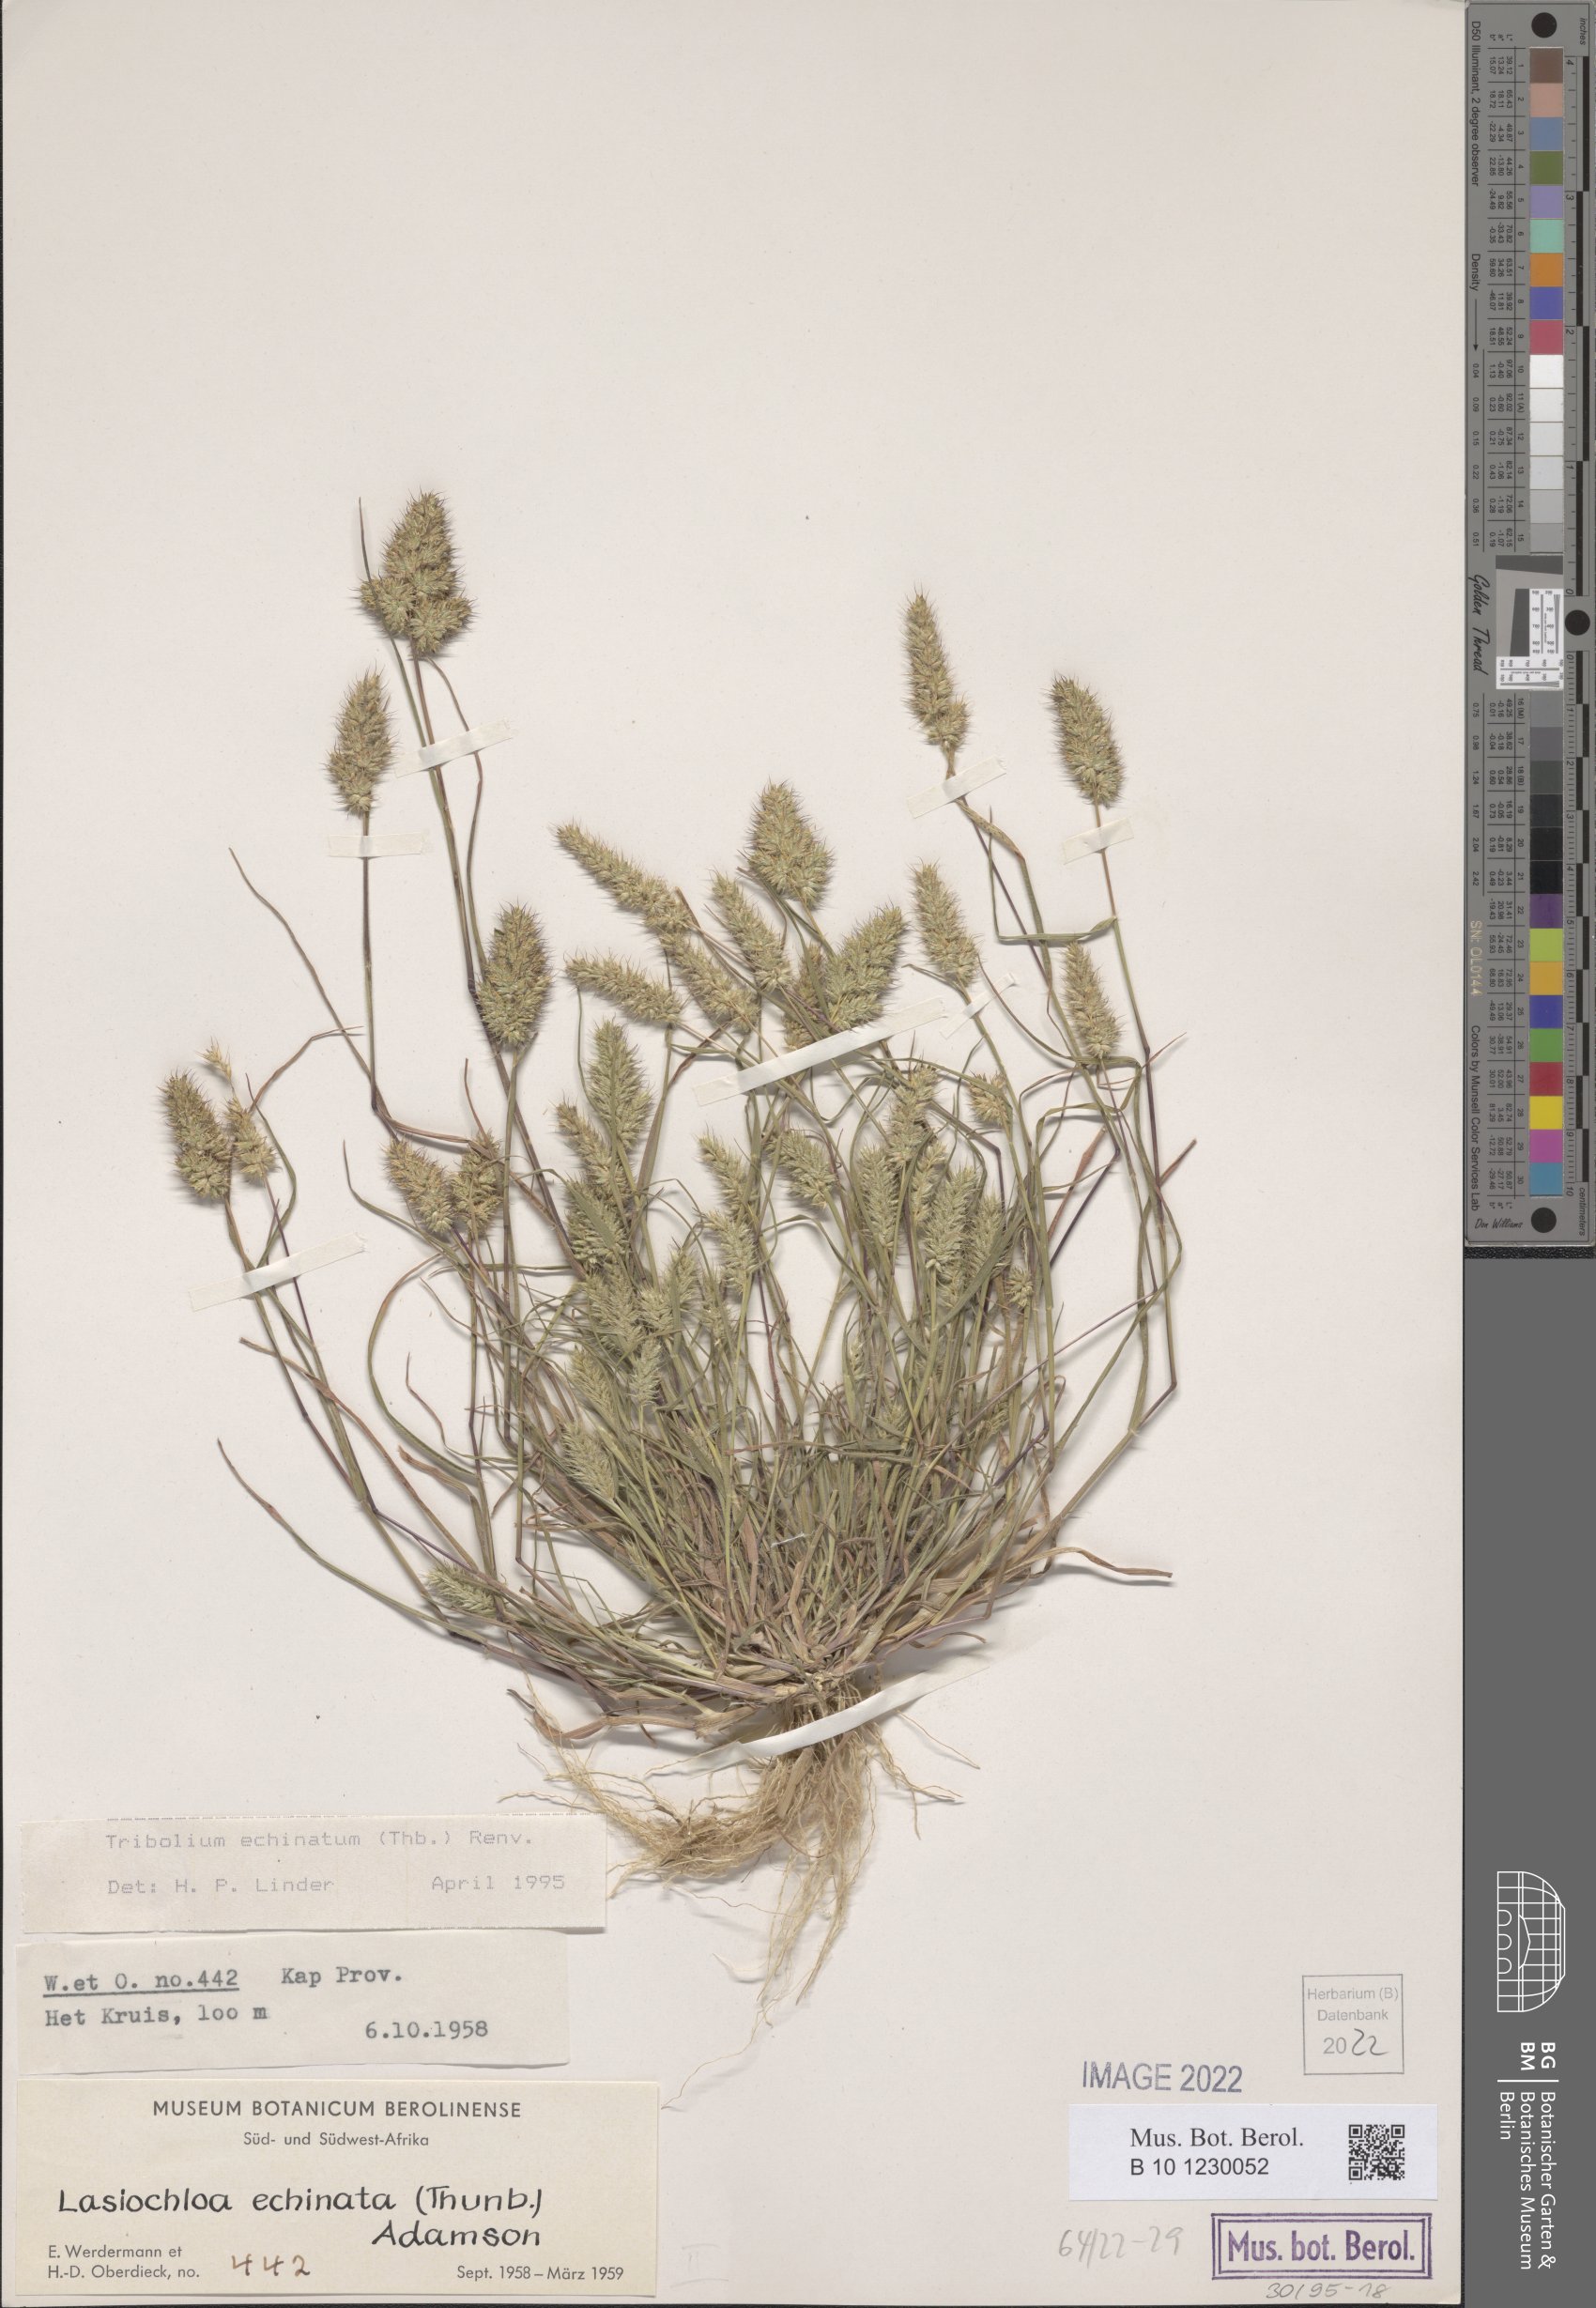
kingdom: Plantae
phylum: Tracheophyta
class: Liliopsida
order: Poales
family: Poaceae
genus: Tribolium
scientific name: Tribolium echinatum
